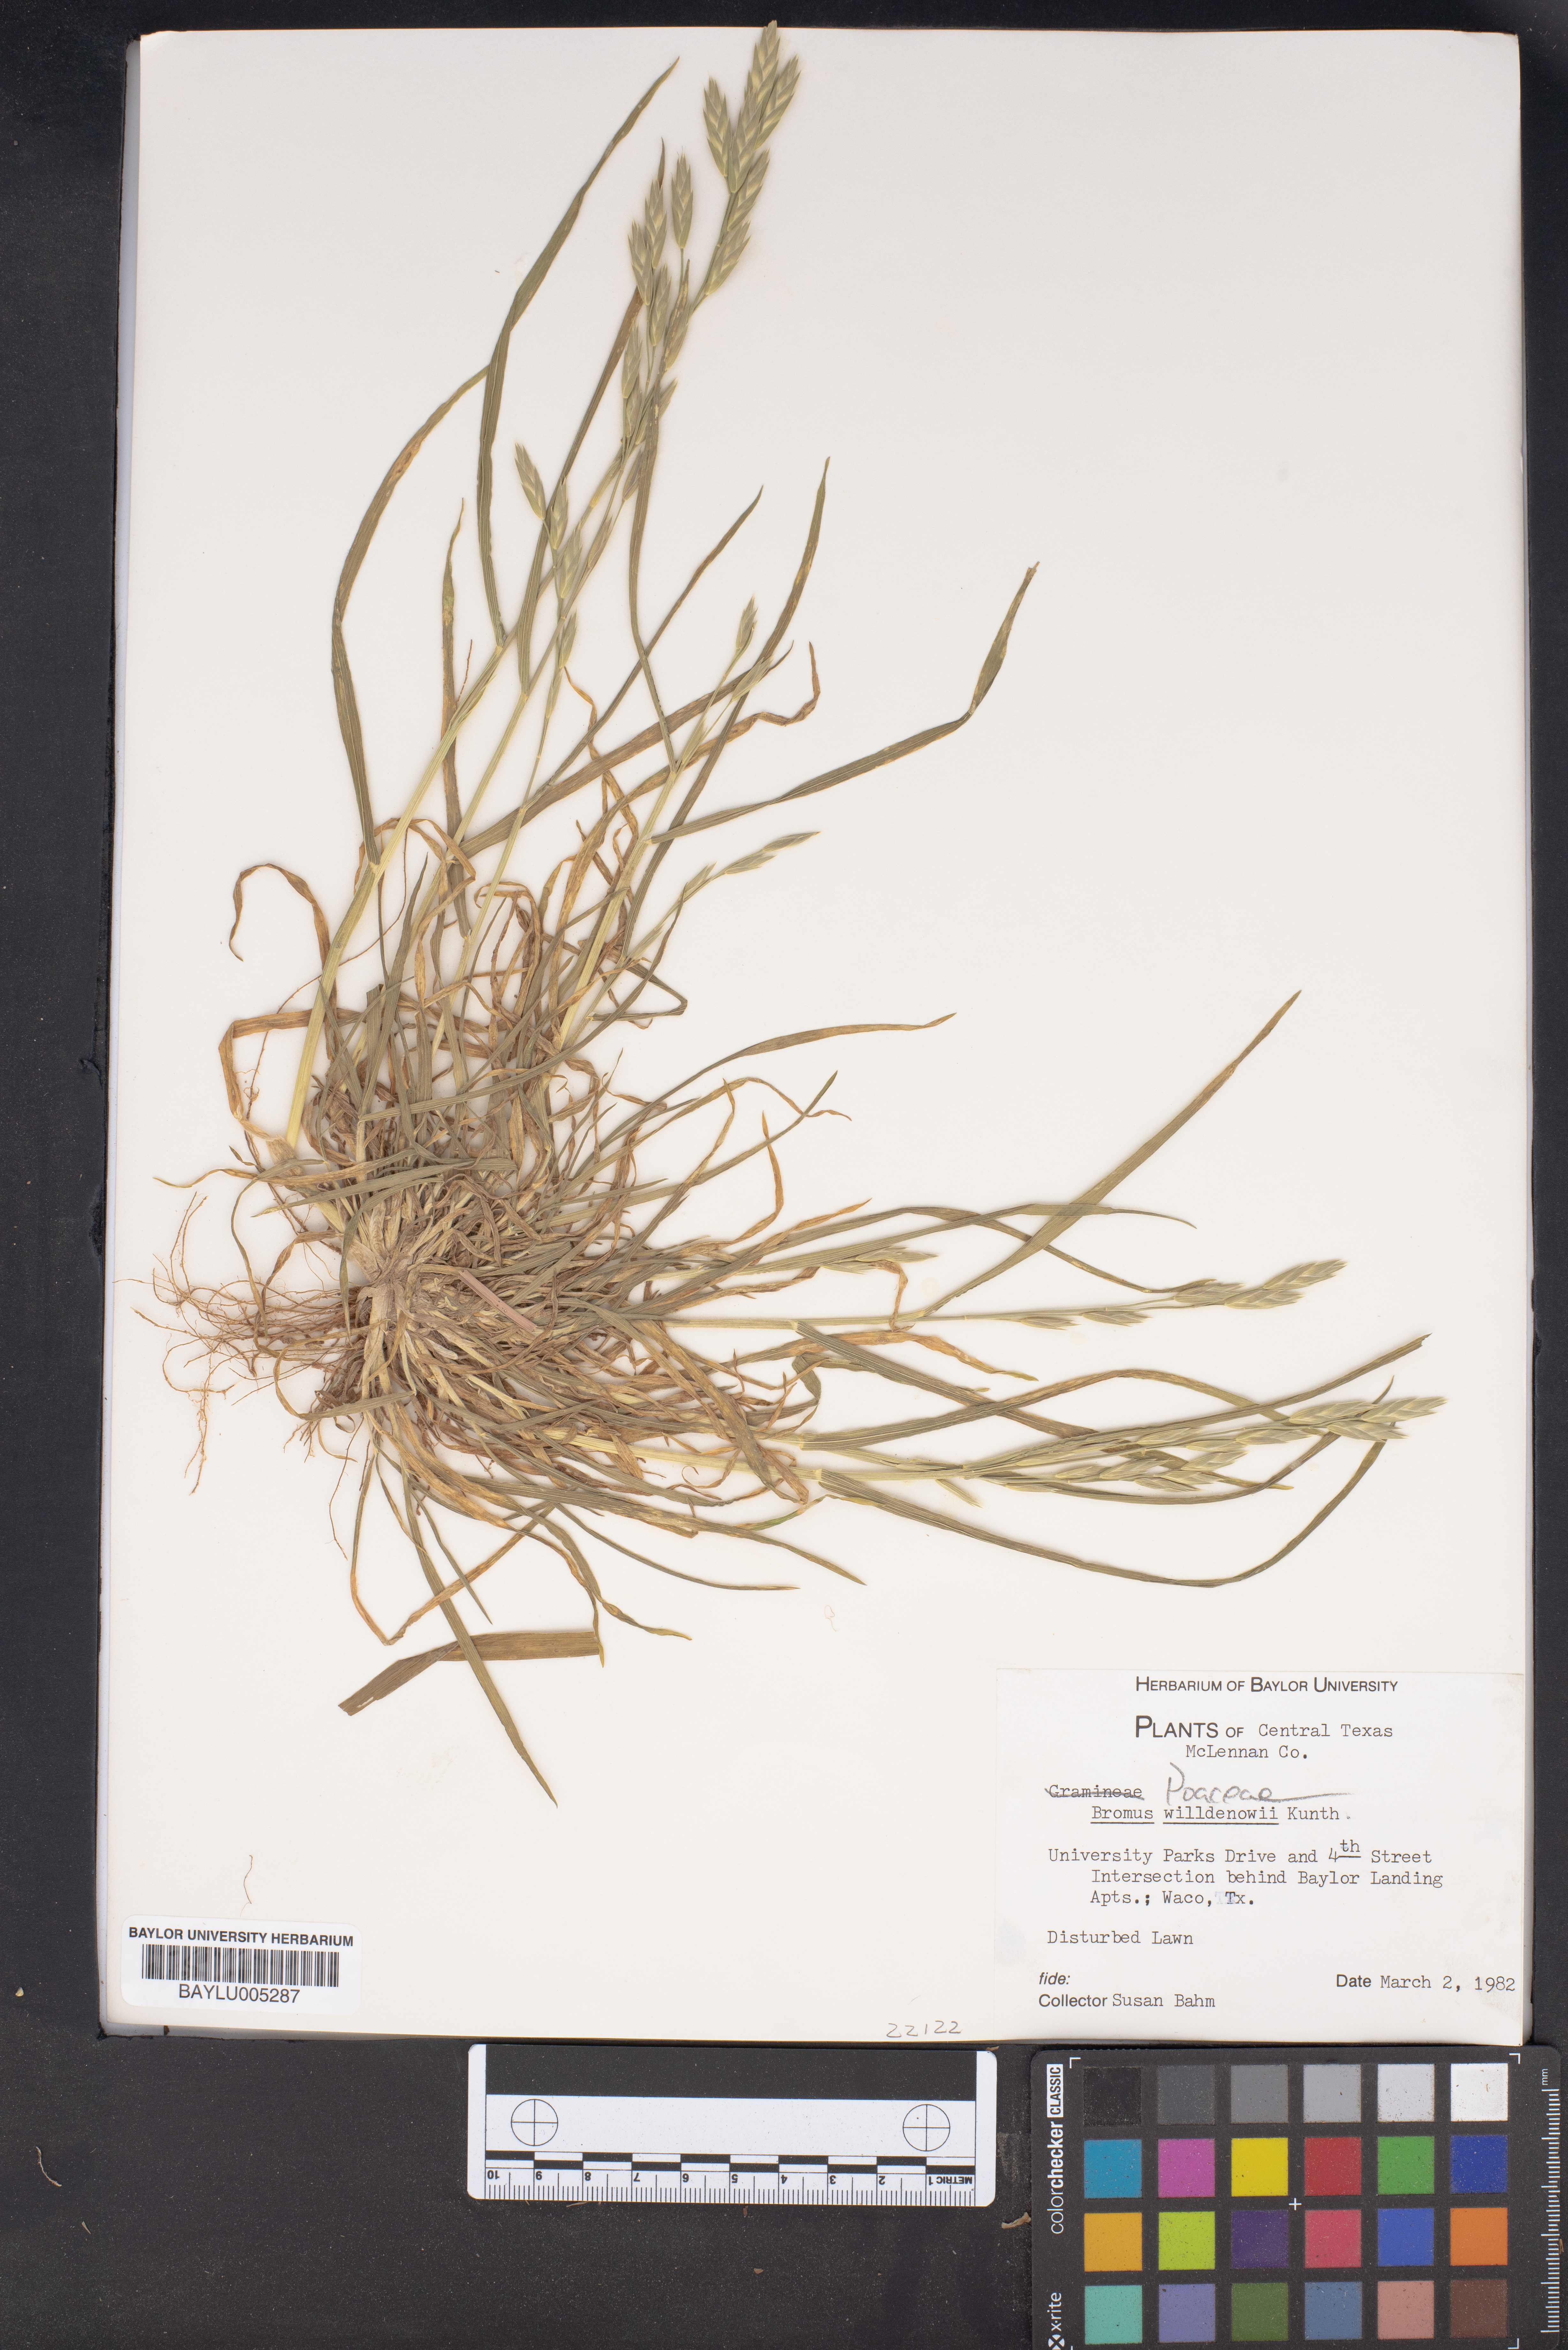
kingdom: Plantae
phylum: Tracheophyta
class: Liliopsida
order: Poales
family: Poaceae
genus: Bromus
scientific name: Bromus catharticus
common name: Rescuegrass
